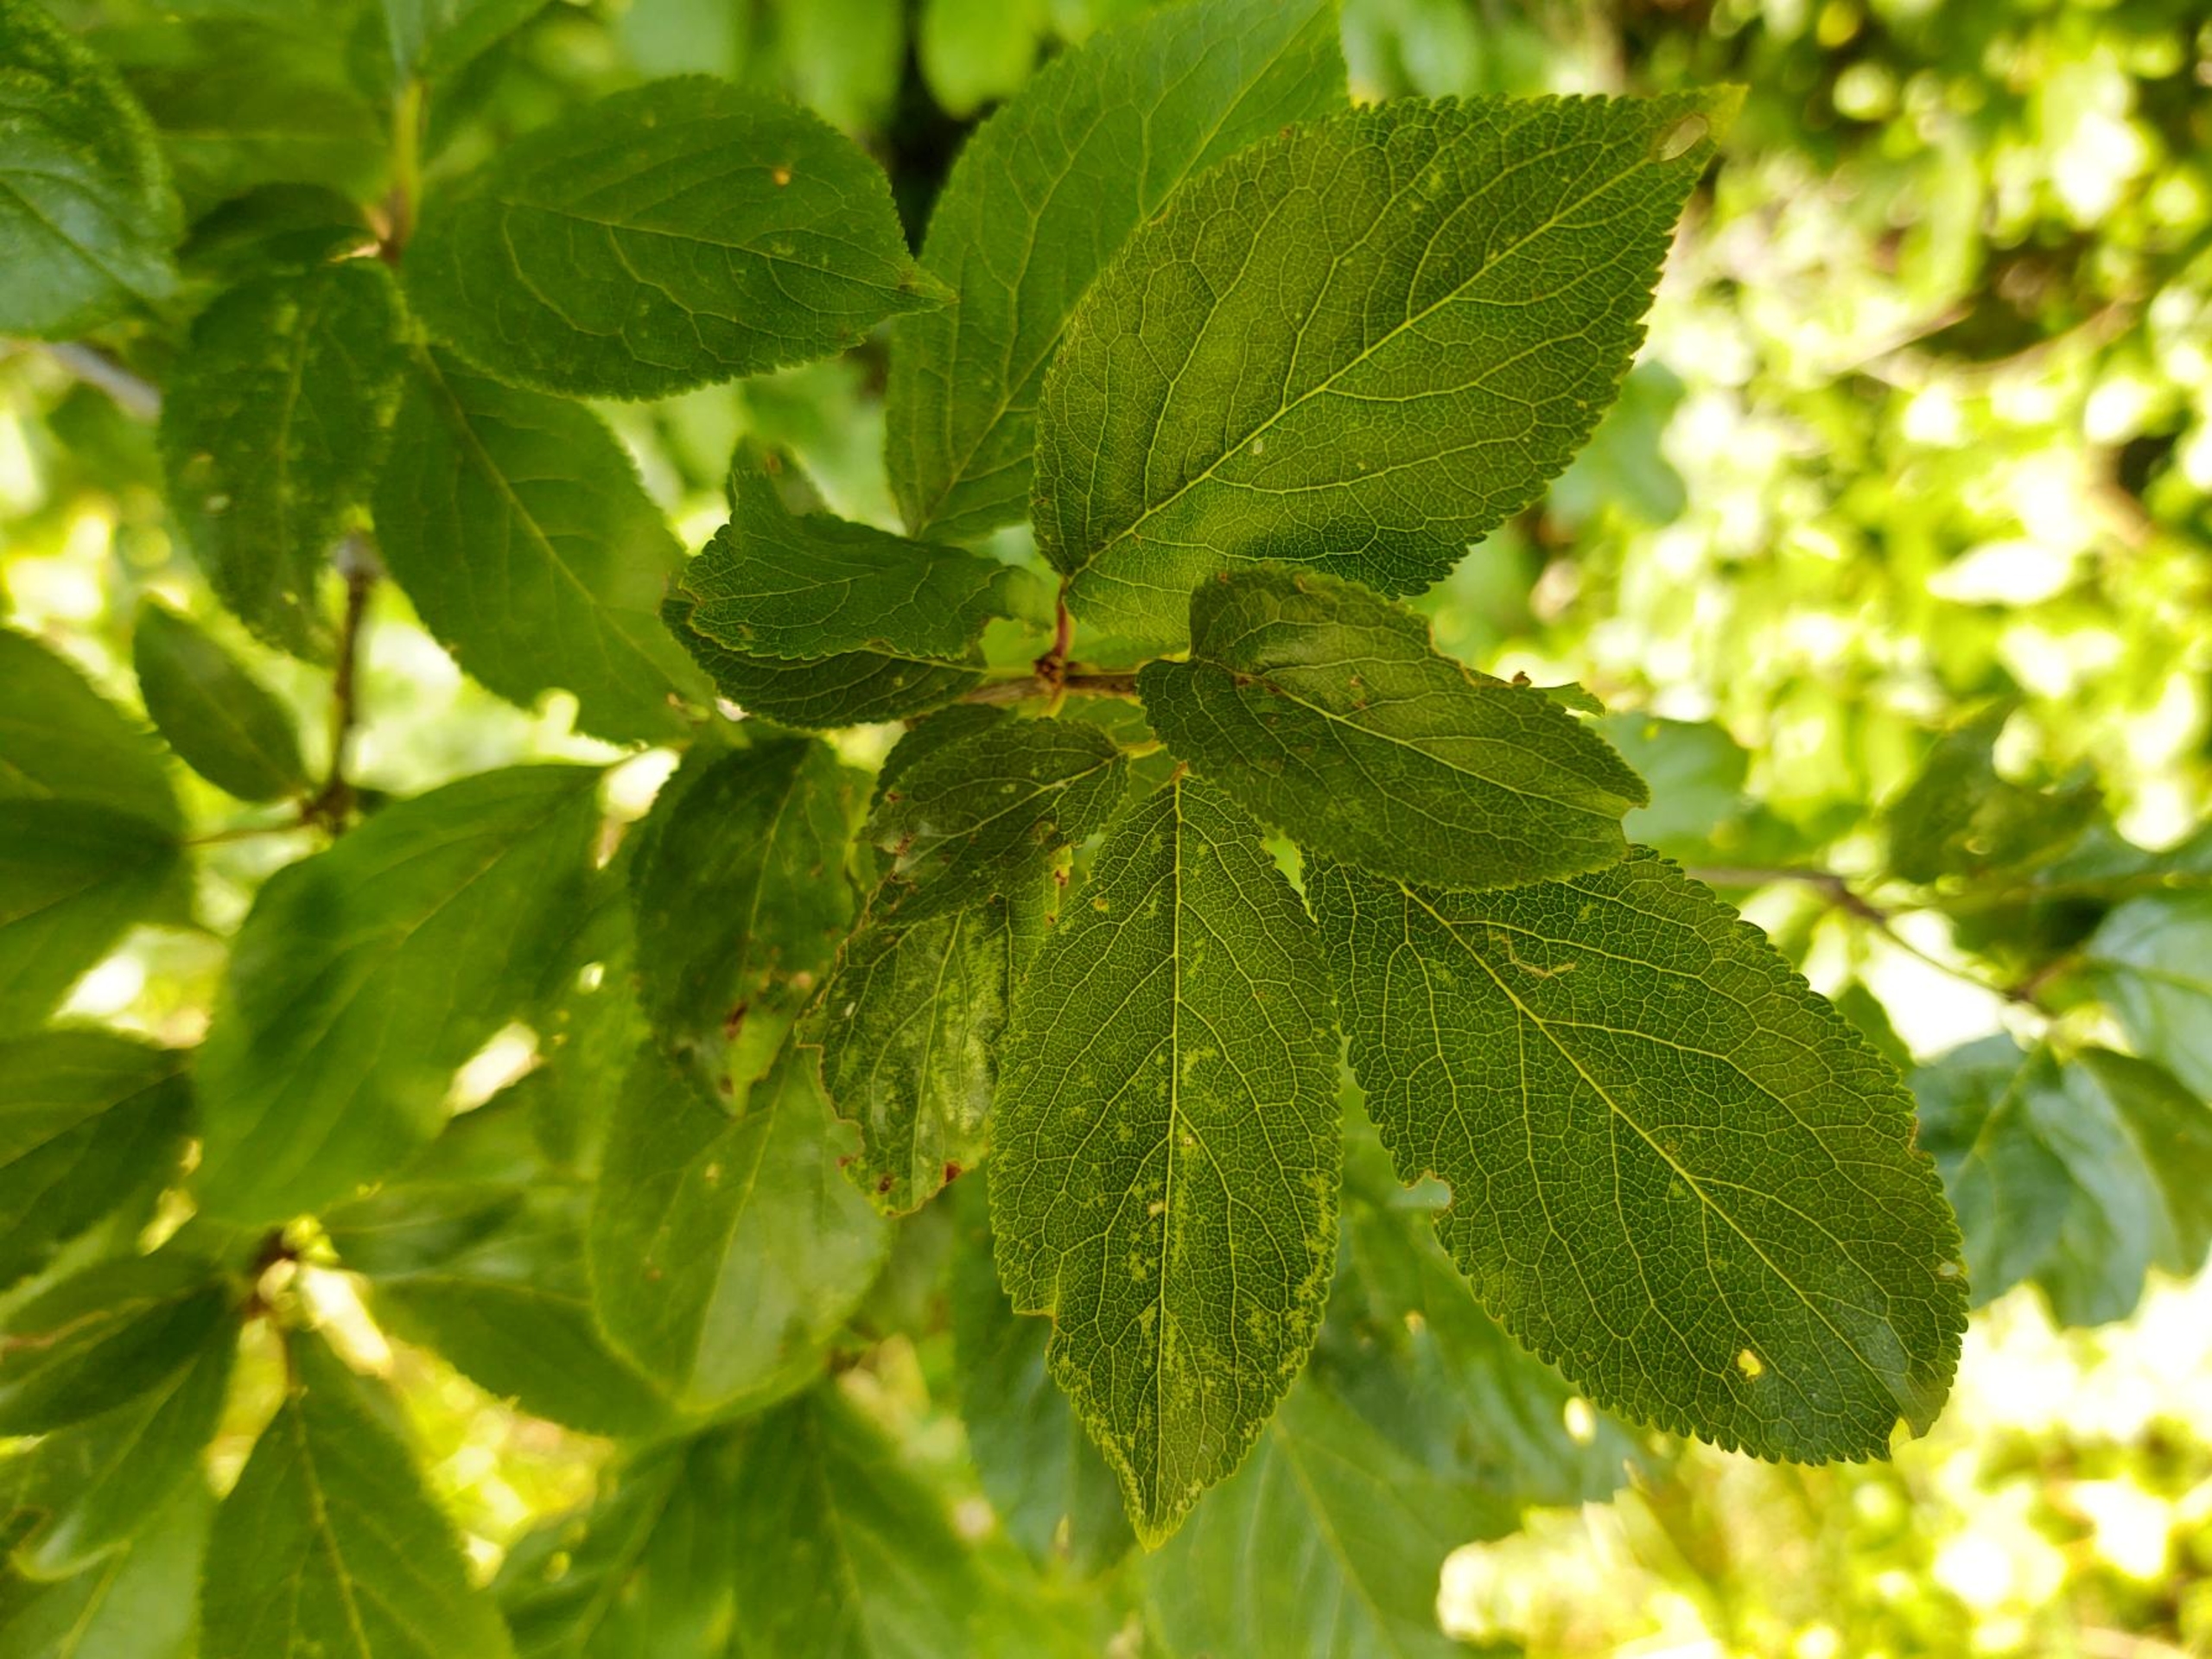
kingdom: Plantae
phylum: Tracheophyta
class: Magnoliopsida
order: Rosales
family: Rosaceae
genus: Prunus
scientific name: Prunus cerasifera
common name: Mirabel
